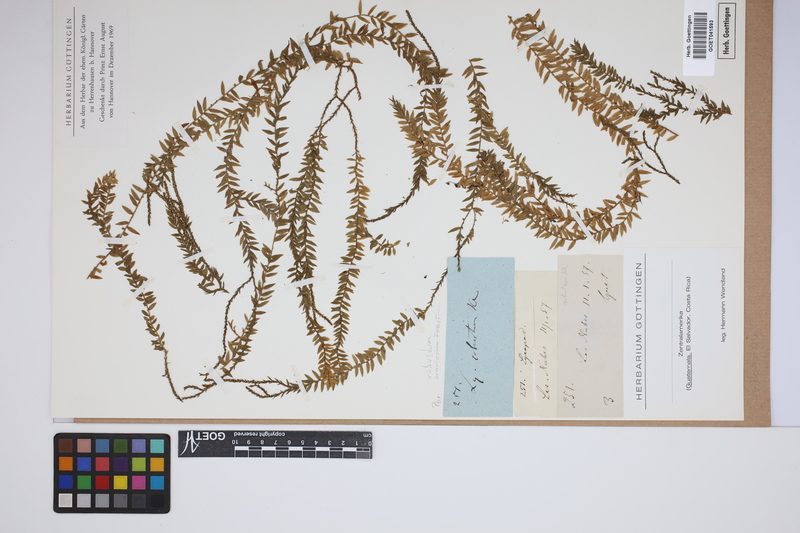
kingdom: Plantae
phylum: Tracheophyta
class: Lycopodiopsida
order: Lycopodiales
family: Lycopodiaceae
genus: Phlegmariurus
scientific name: Phlegmariurus robustus
